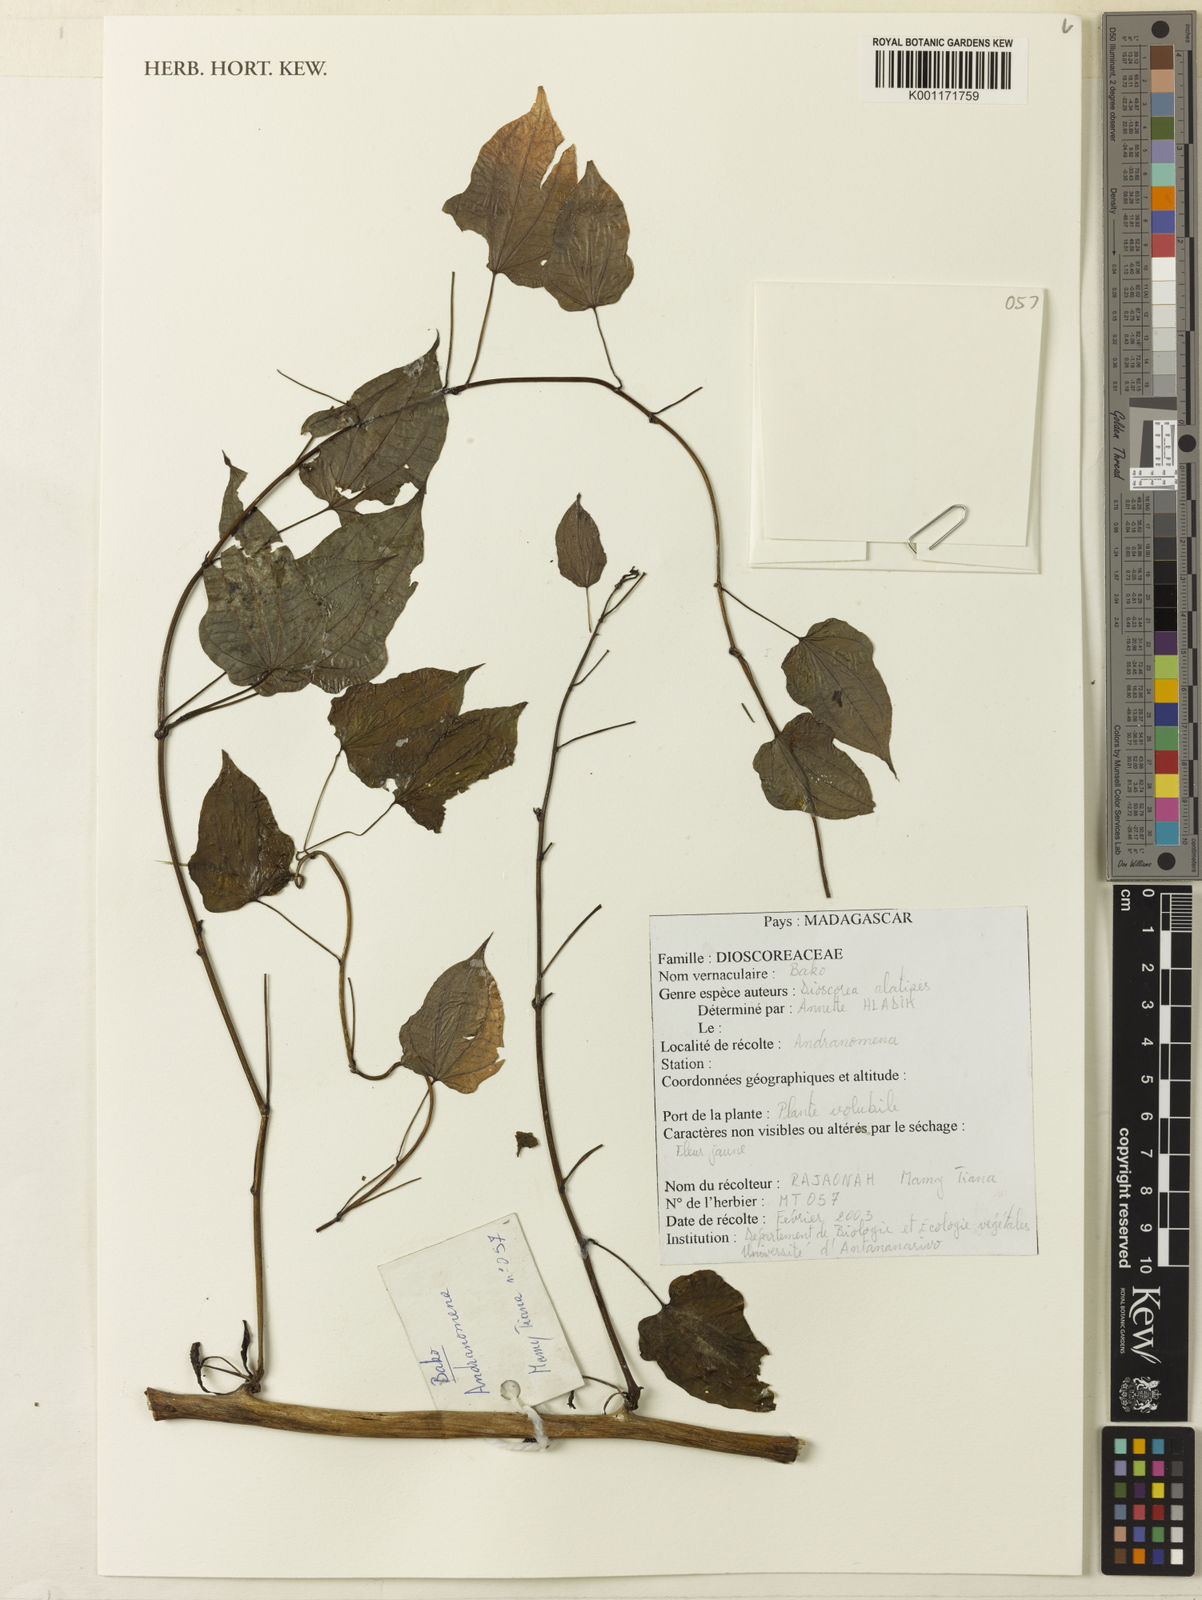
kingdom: Plantae
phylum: Tracheophyta
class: Liliopsida
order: Dioscoreales
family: Dioscoreaceae
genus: Dioscorea
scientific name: Dioscorea alatipes
